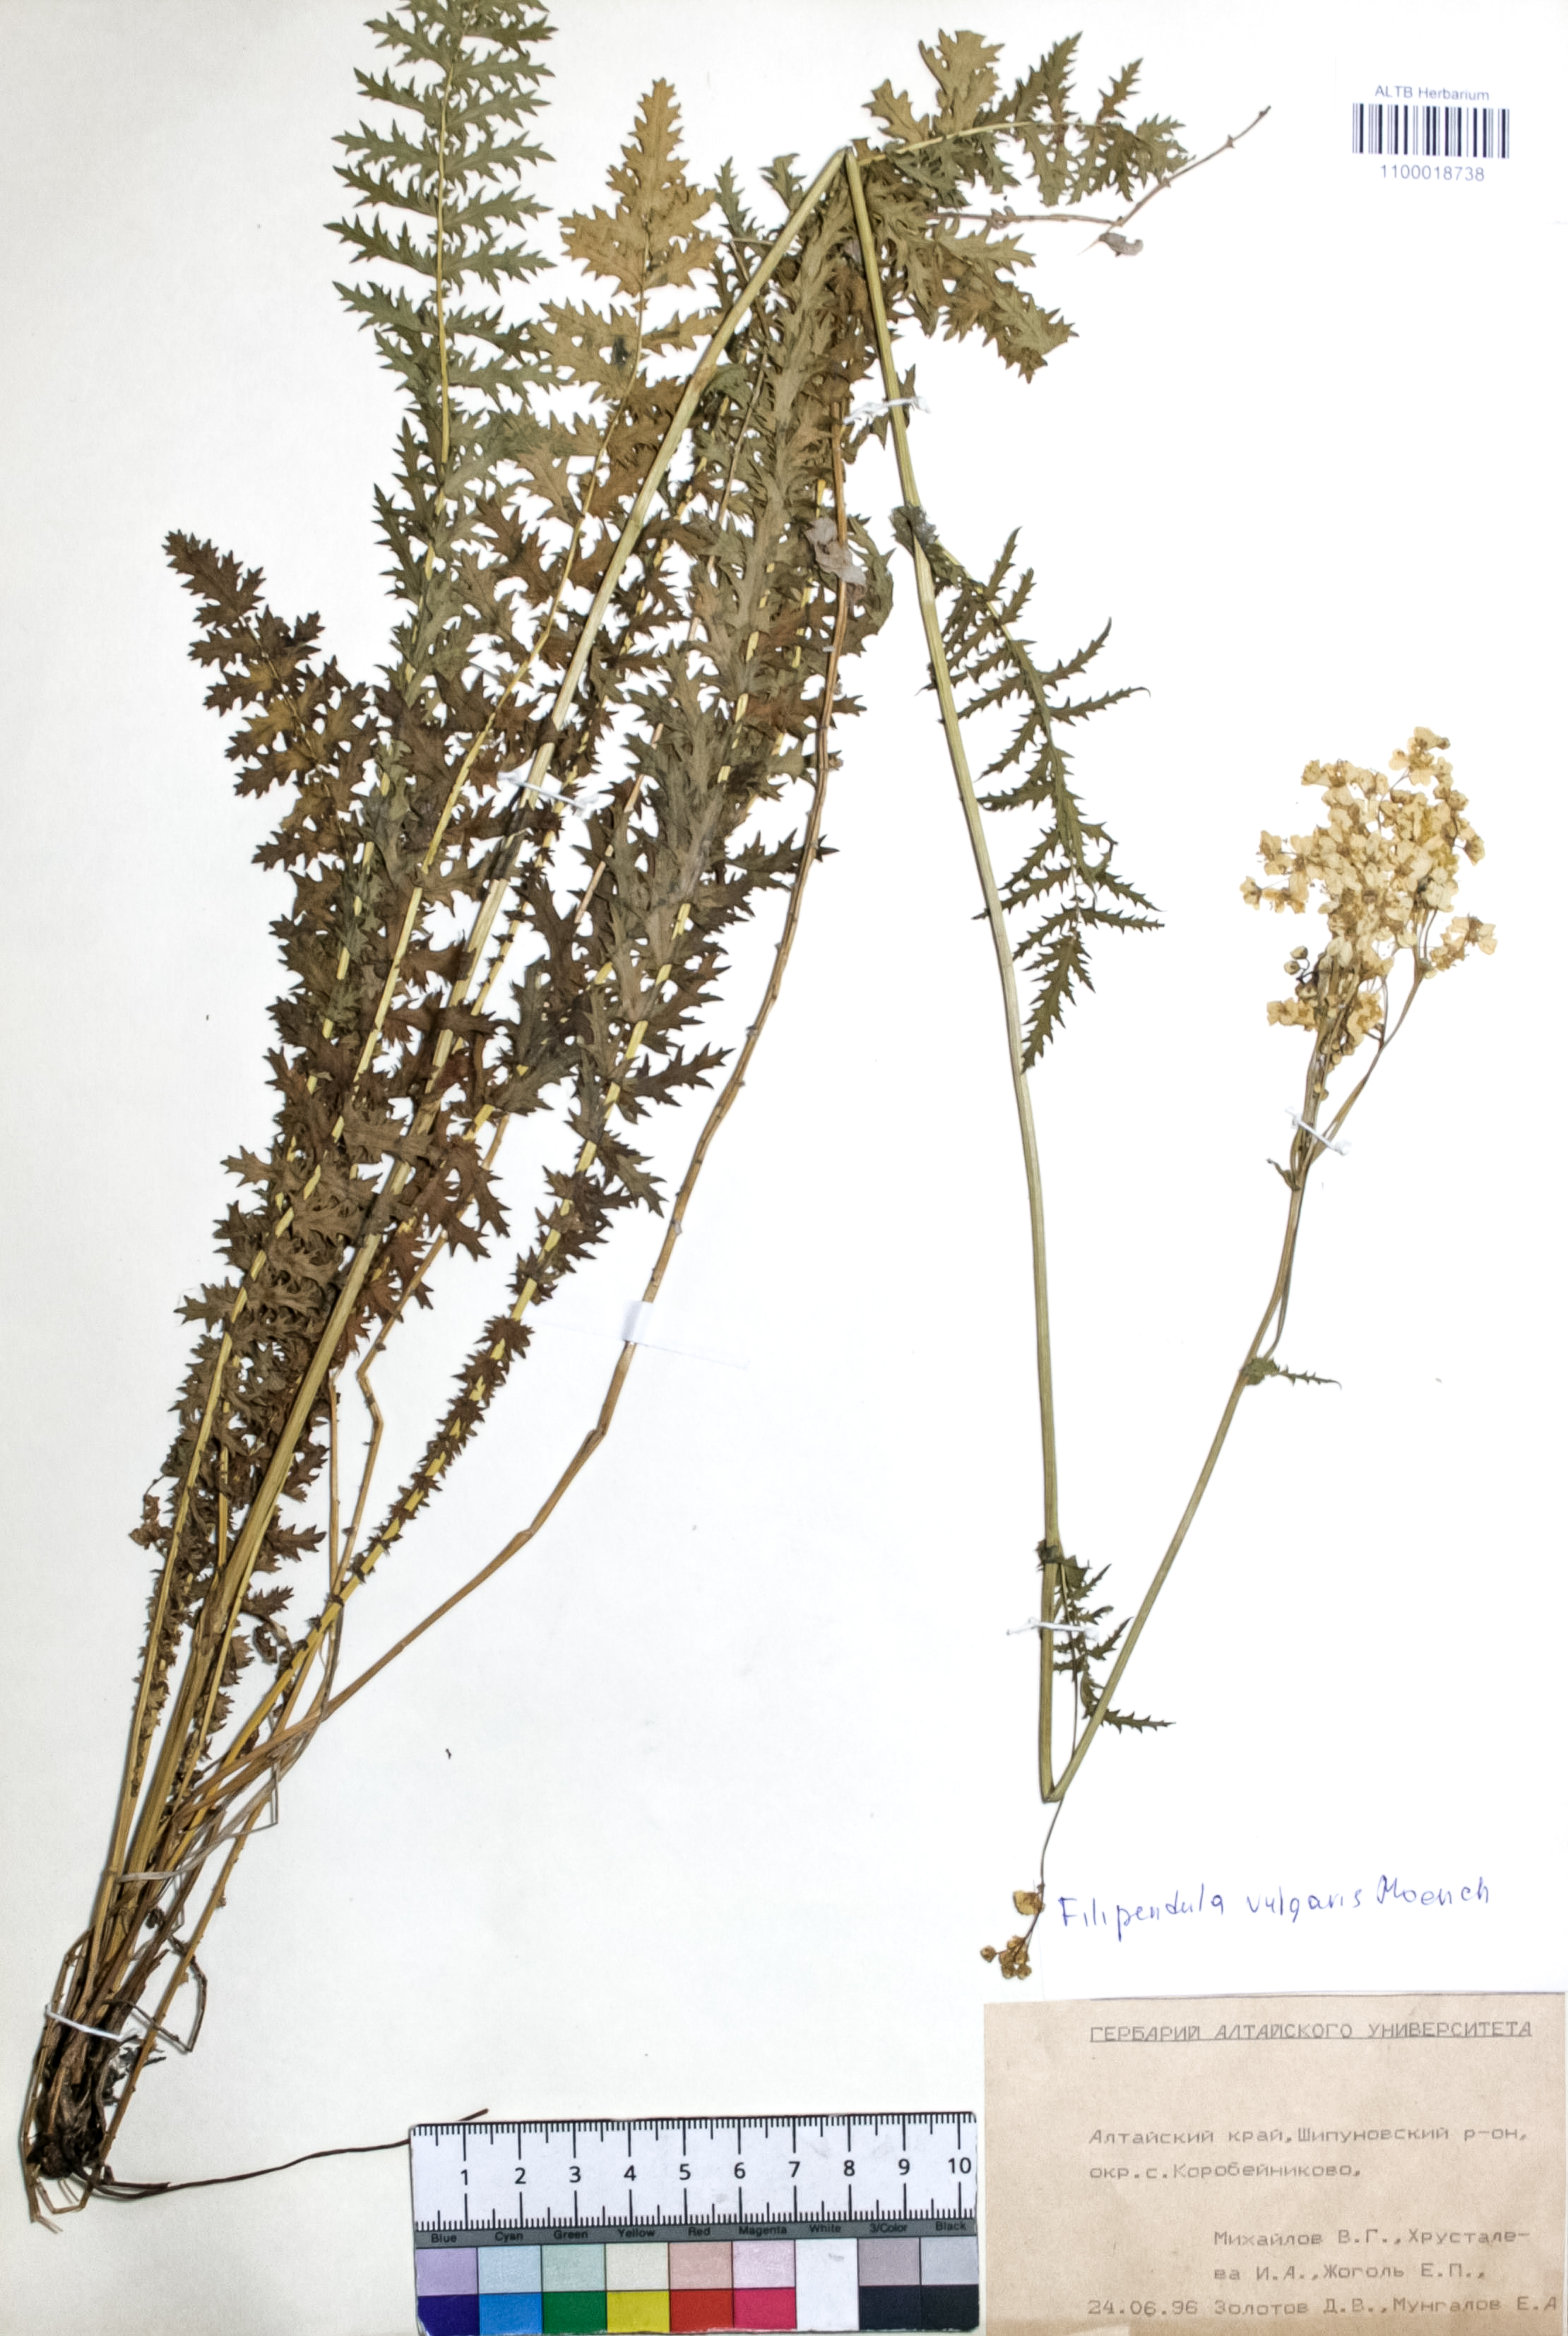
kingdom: Plantae
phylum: Tracheophyta
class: Magnoliopsida
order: Rosales
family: Rosaceae
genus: Filipendula
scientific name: Filipendula vulgaris
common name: Dropwort
